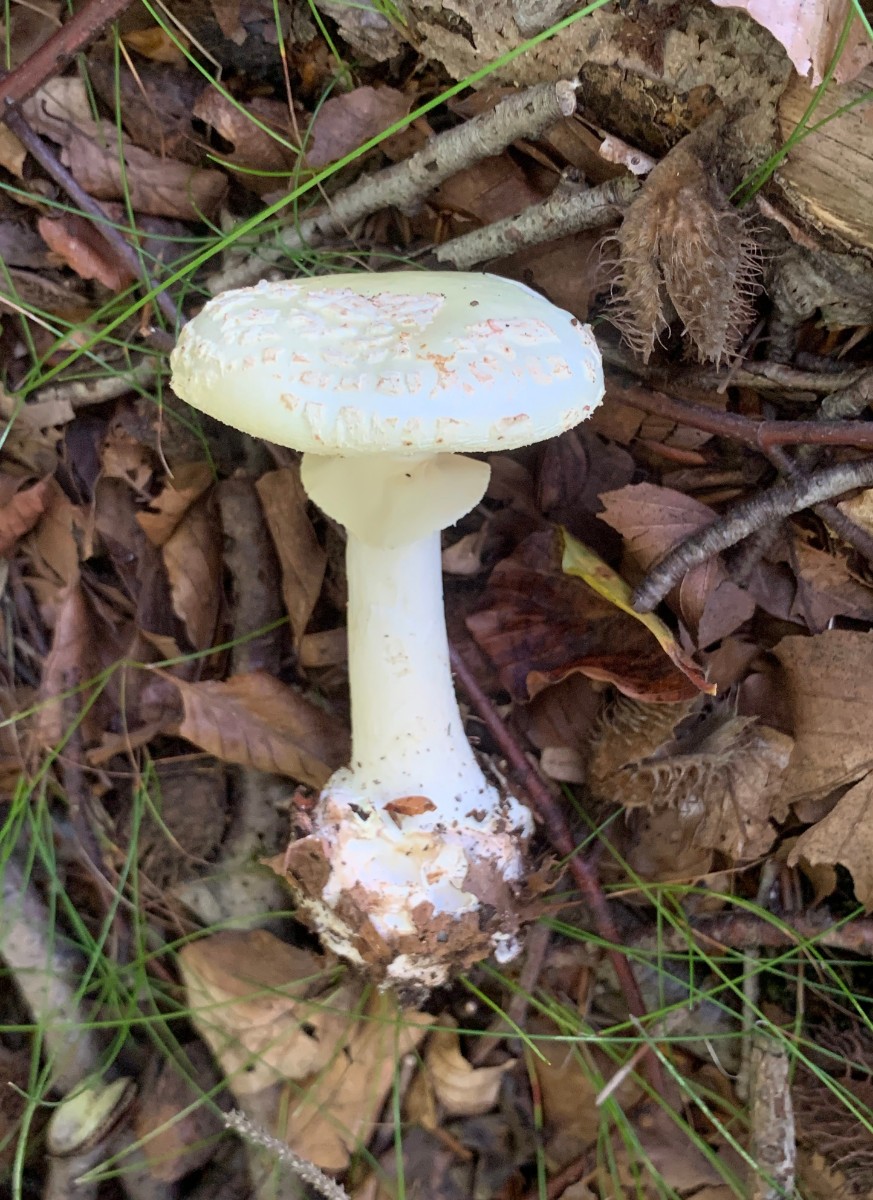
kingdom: Fungi
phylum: Basidiomycota
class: Agaricomycetes
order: Agaricales
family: Amanitaceae
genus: Amanita
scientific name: Amanita citrina
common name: kugleknoldet fluesvamp
